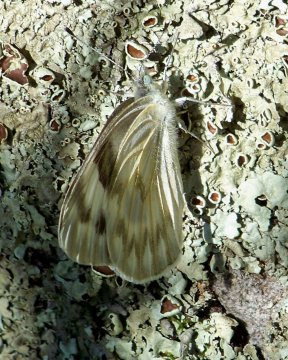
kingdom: Animalia
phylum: Arthropoda
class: Insecta
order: Lepidoptera
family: Pieridae
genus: Pontia
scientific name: Pontia protodice
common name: Checkered White
